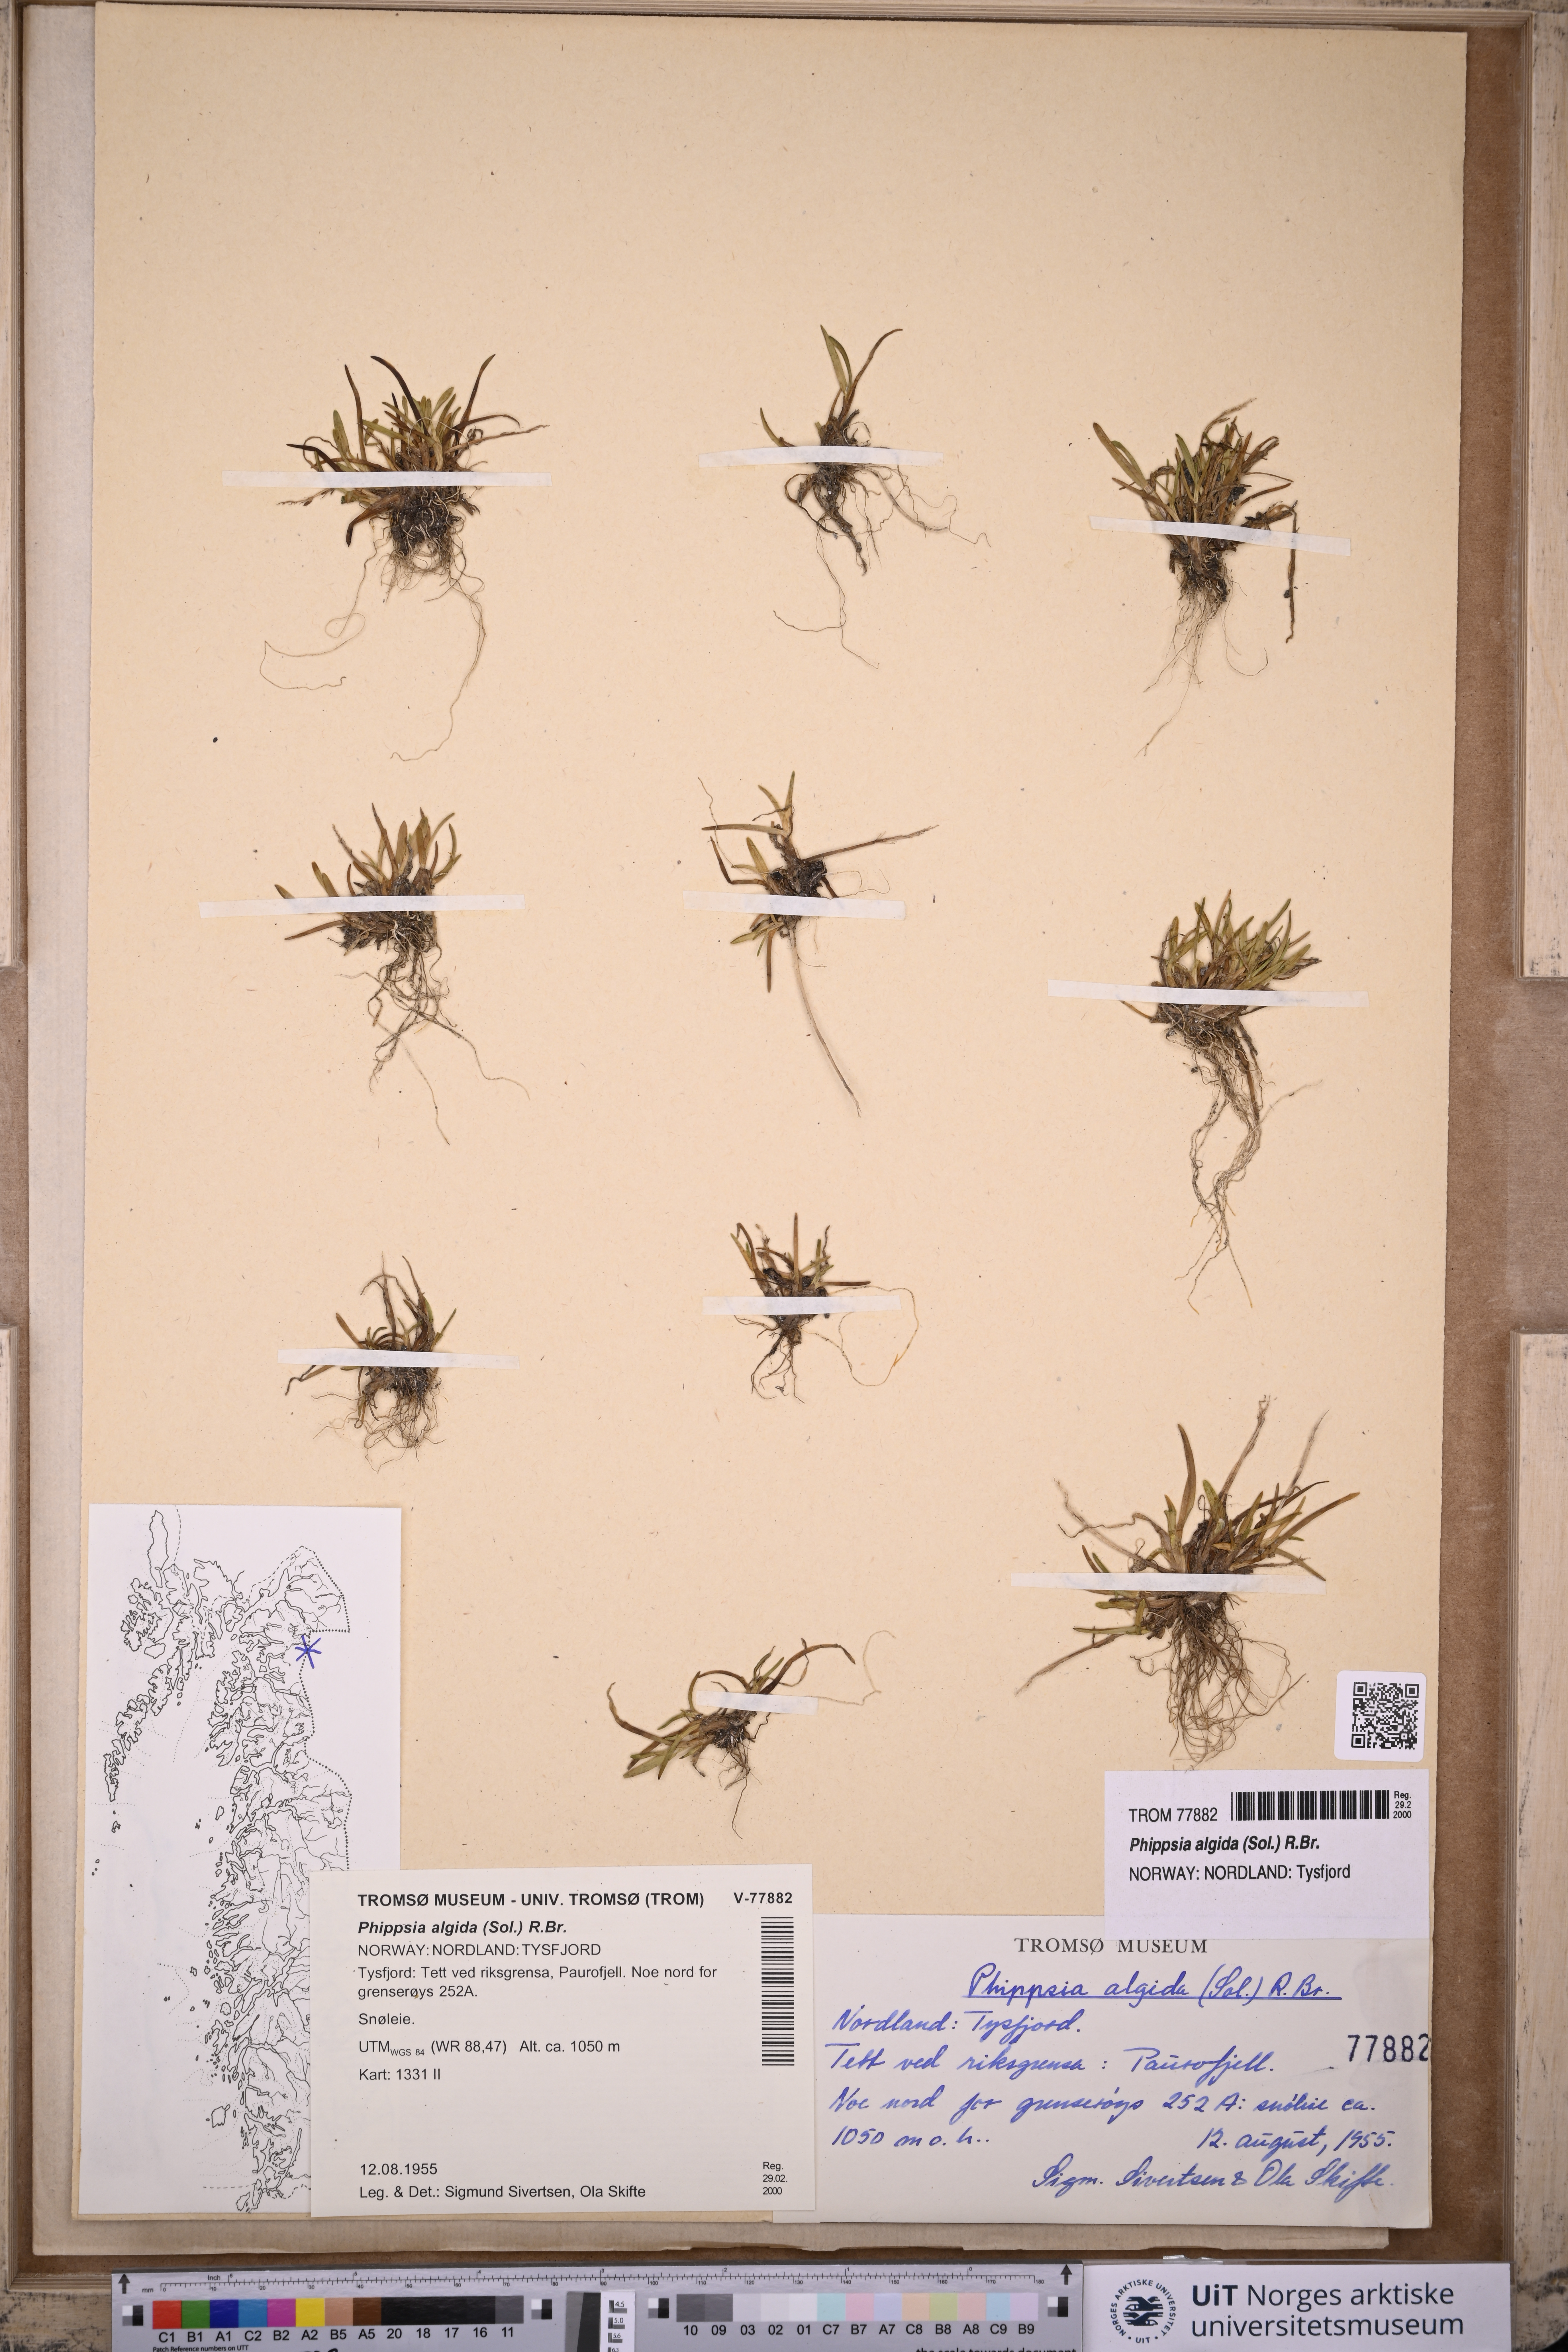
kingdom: Plantae
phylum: Tracheophyta
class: Liliopsida
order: Poales
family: Poaceae
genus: Phippsia
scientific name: Phippsia algida
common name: Ice grass
